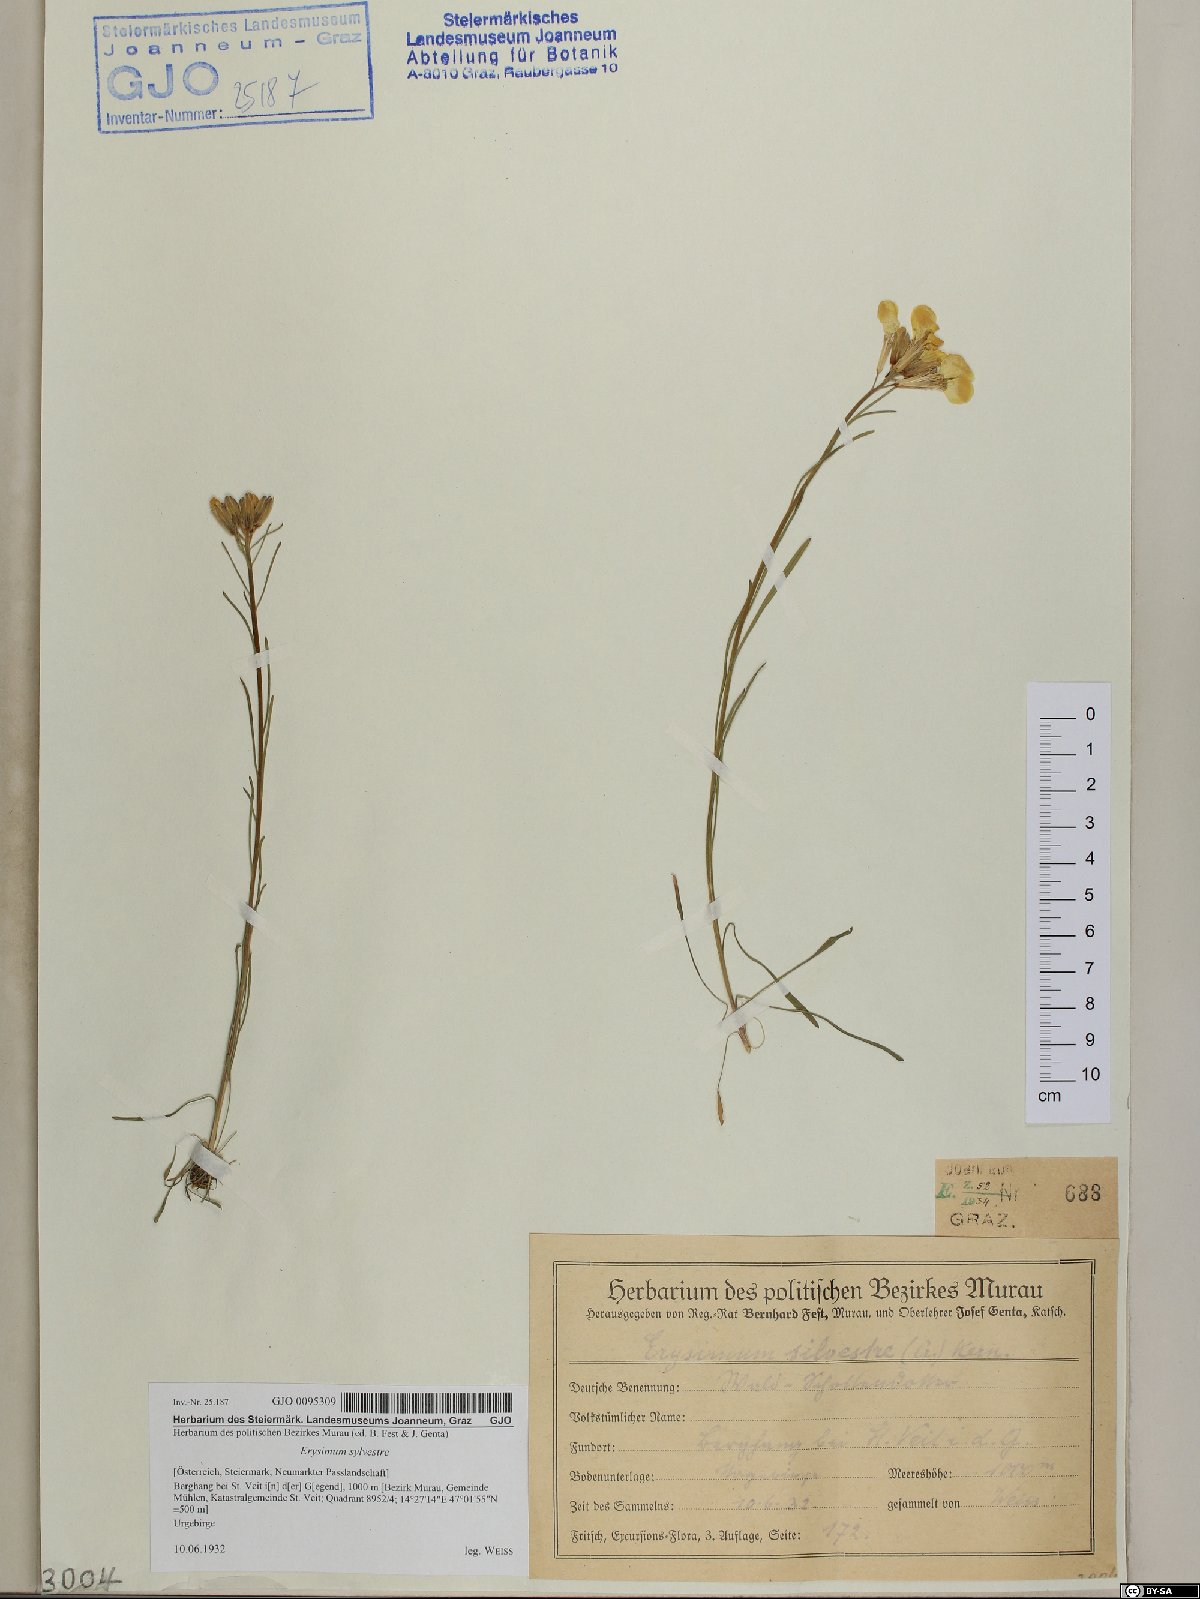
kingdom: Plantae
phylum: Tracheophyta
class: Magnoliopsida
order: Brassicales
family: Brassicaceae
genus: Erysimum
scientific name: Erysimum sylvestre
